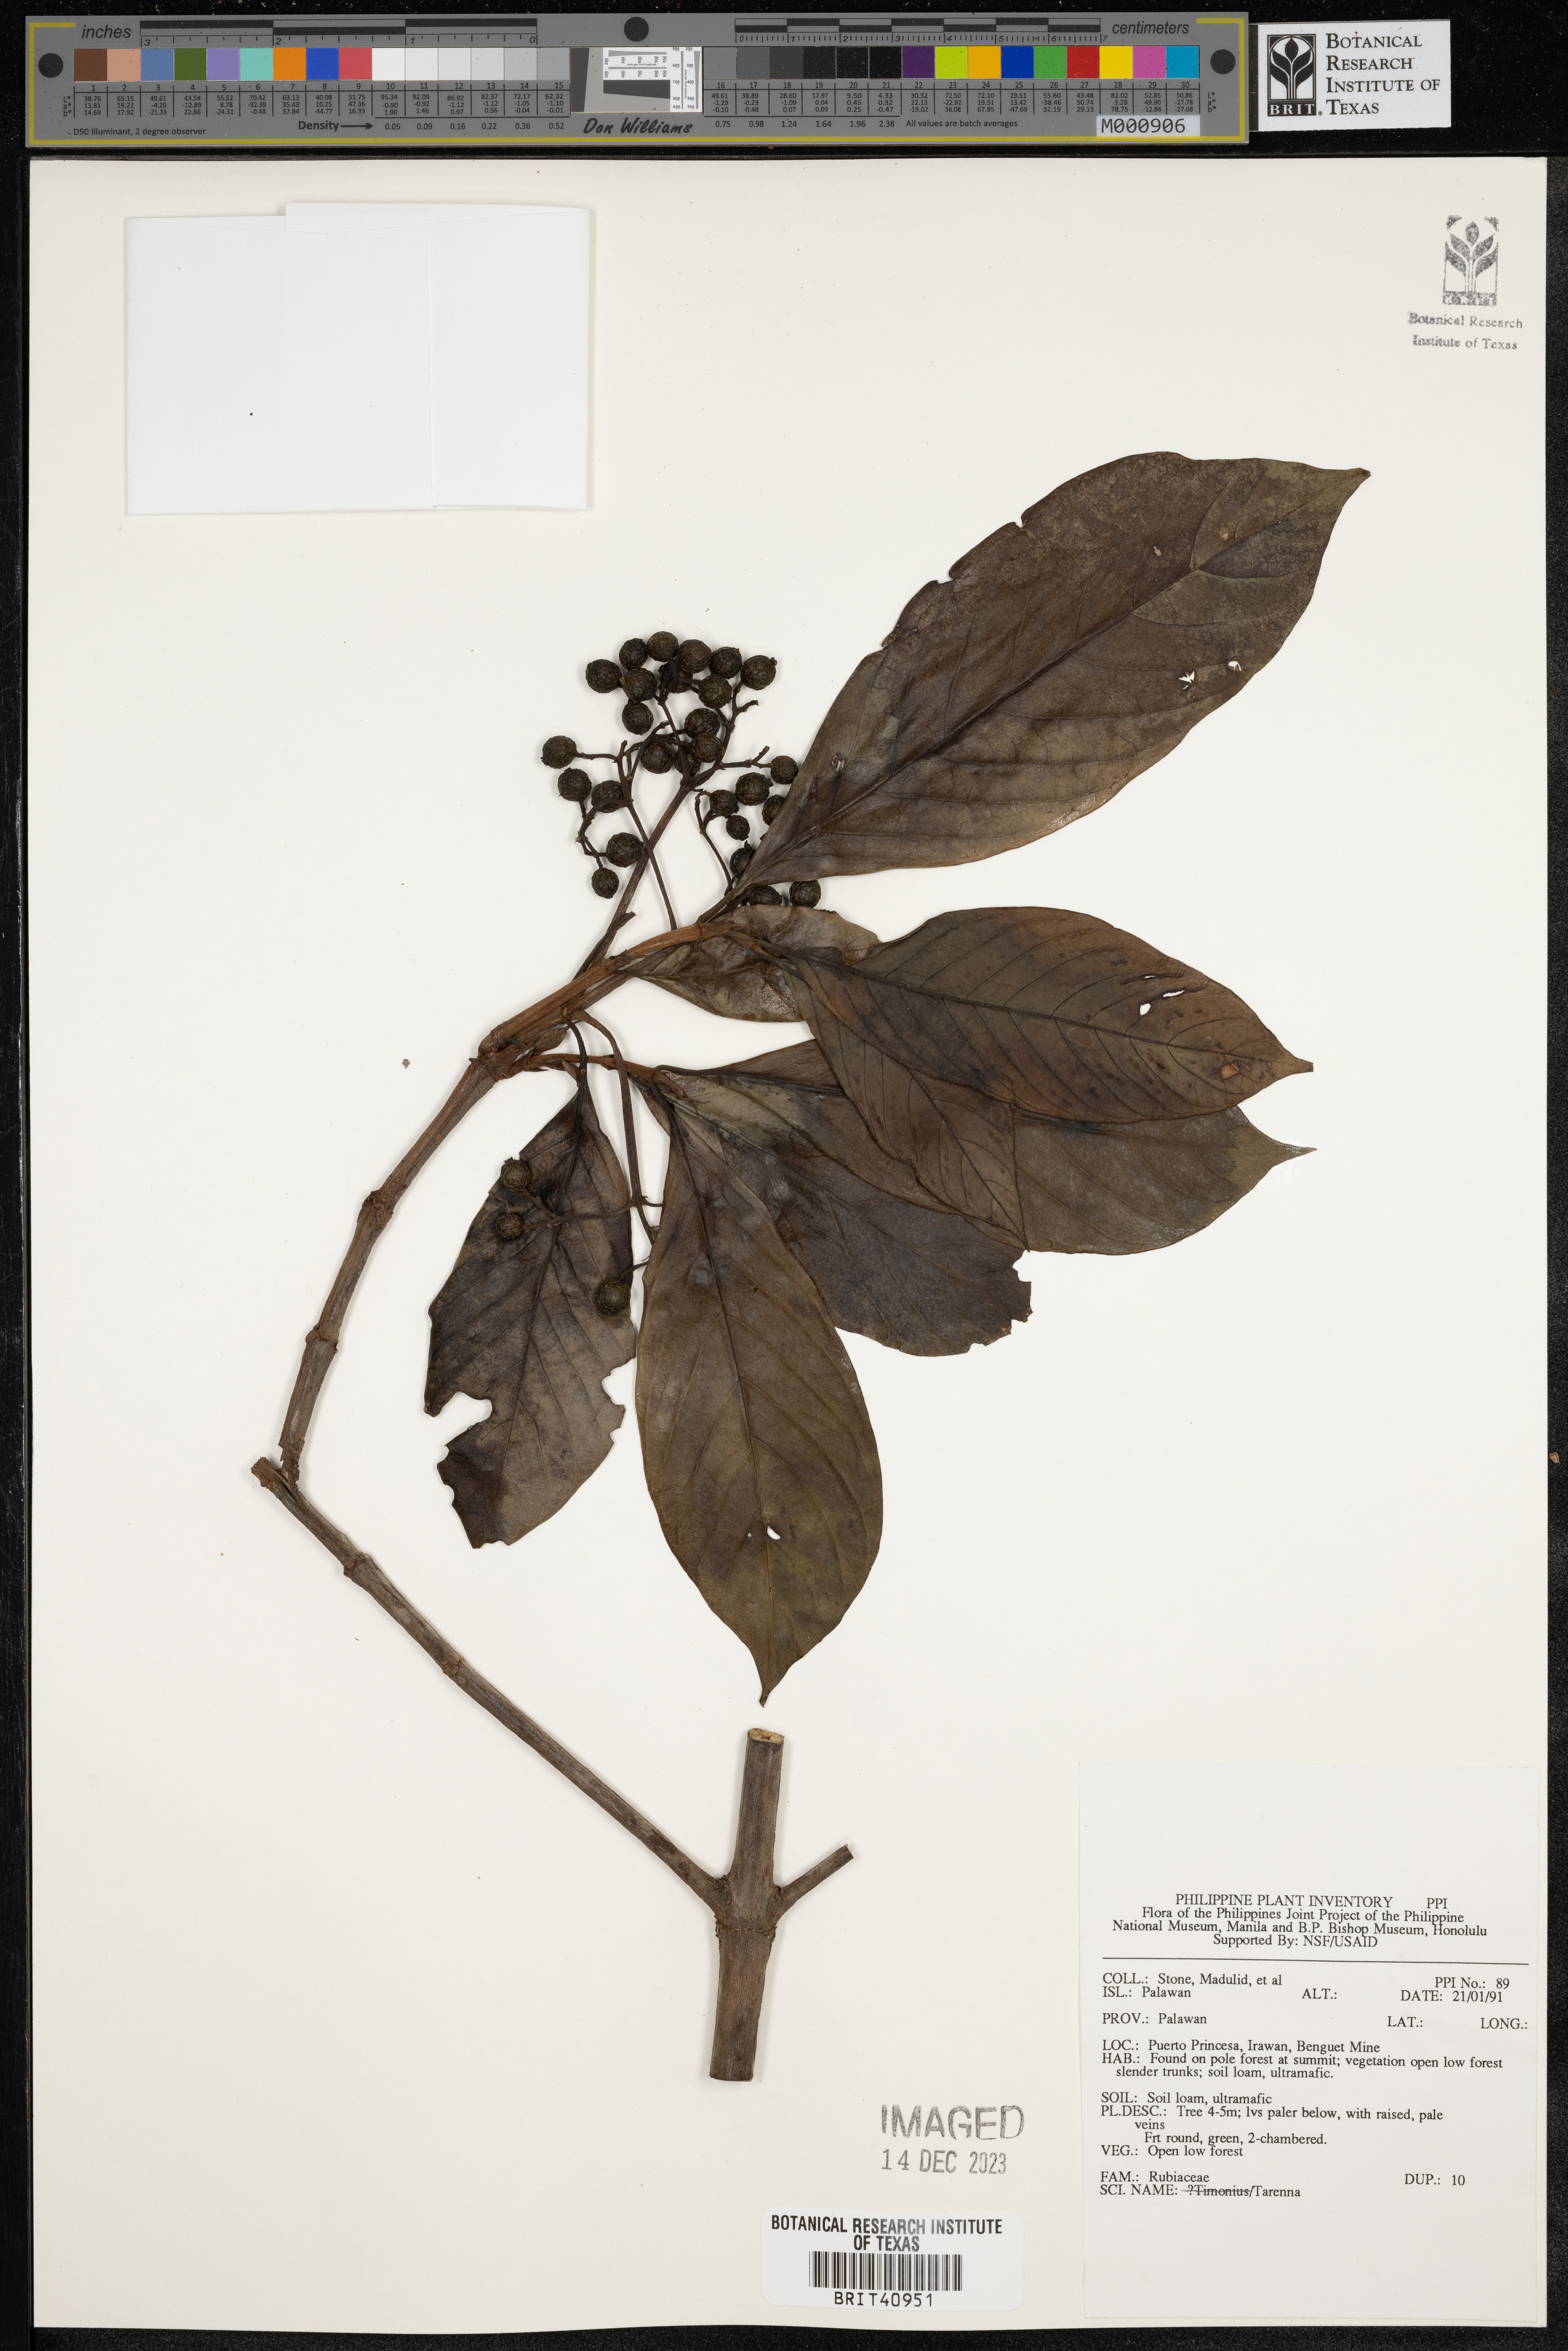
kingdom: Plantae
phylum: Tracheophyta
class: Magnoliopsida
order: Gentianales
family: Rubiaceae
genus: Tarenna
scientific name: Tarenna
